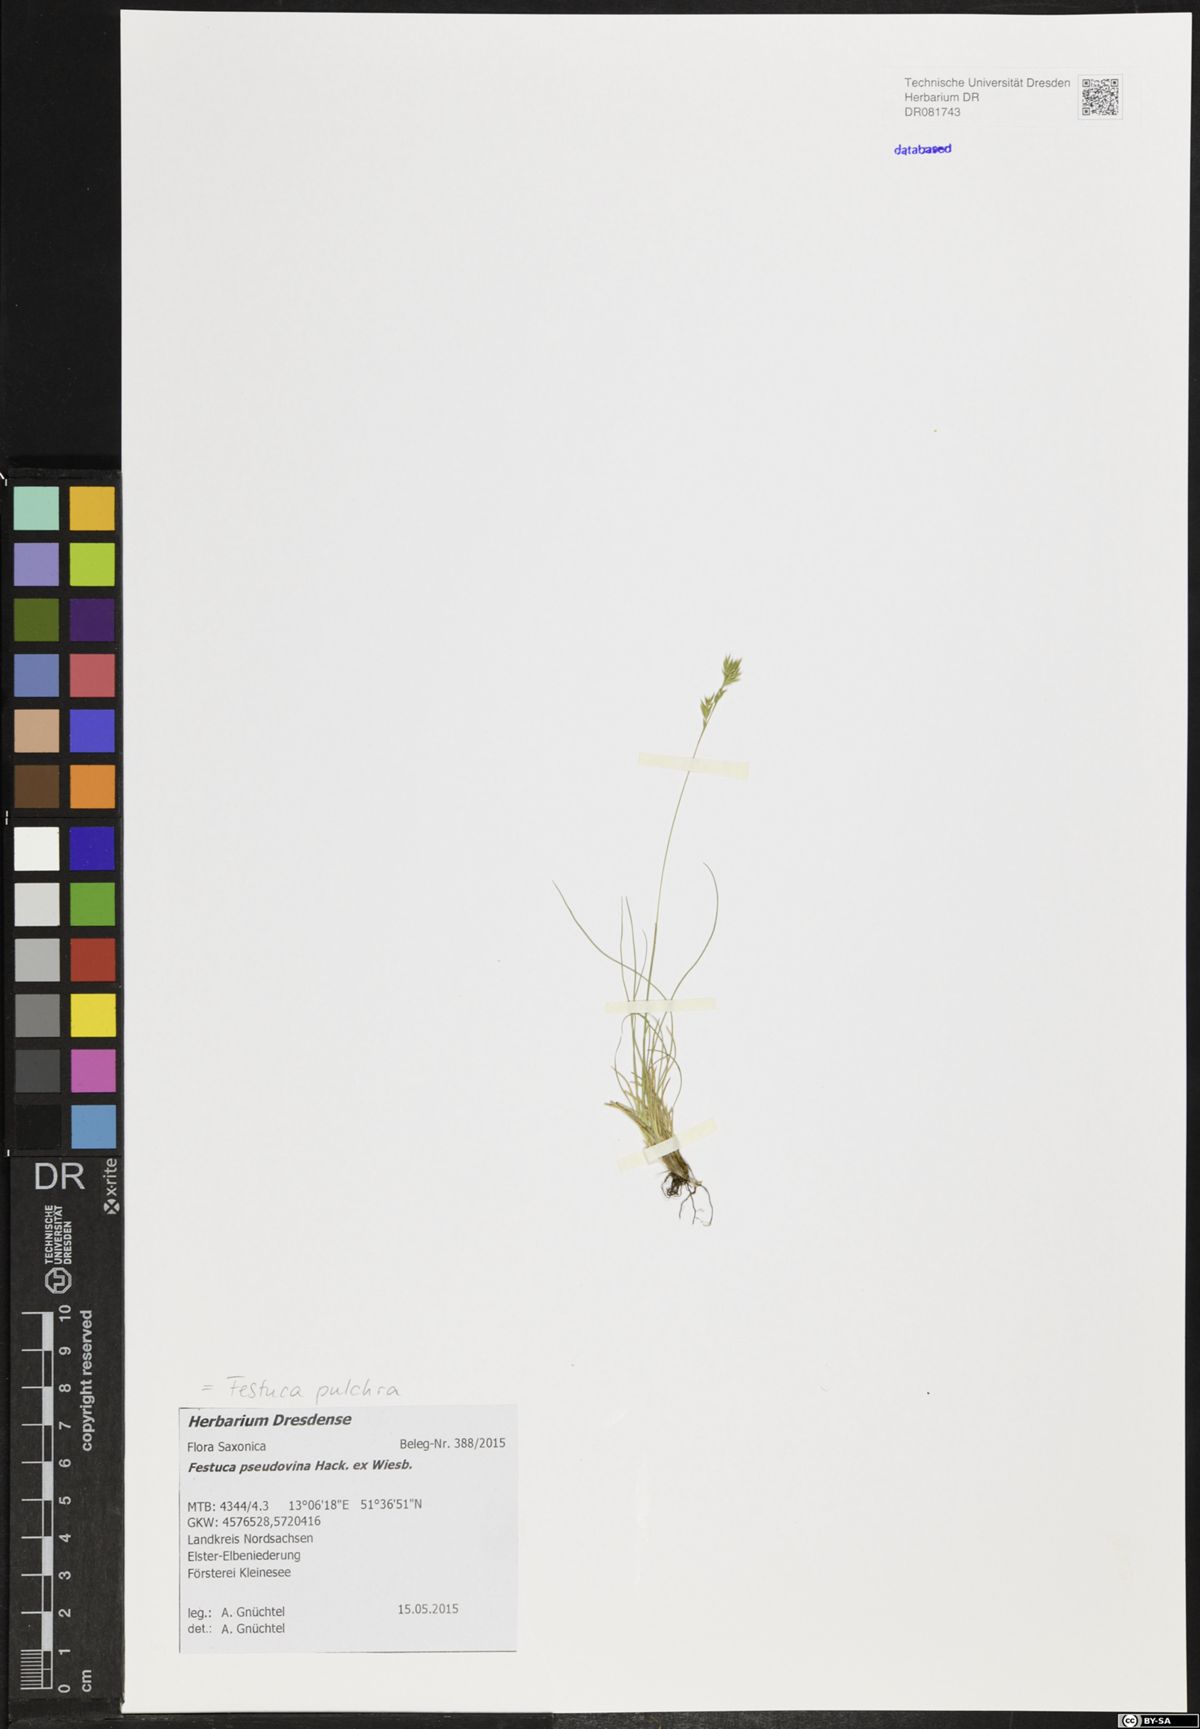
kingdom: Plantae
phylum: Tracheophyta
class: Liliopsida
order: Poales
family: Poaceae
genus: Festuca
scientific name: Festuca pulchra
